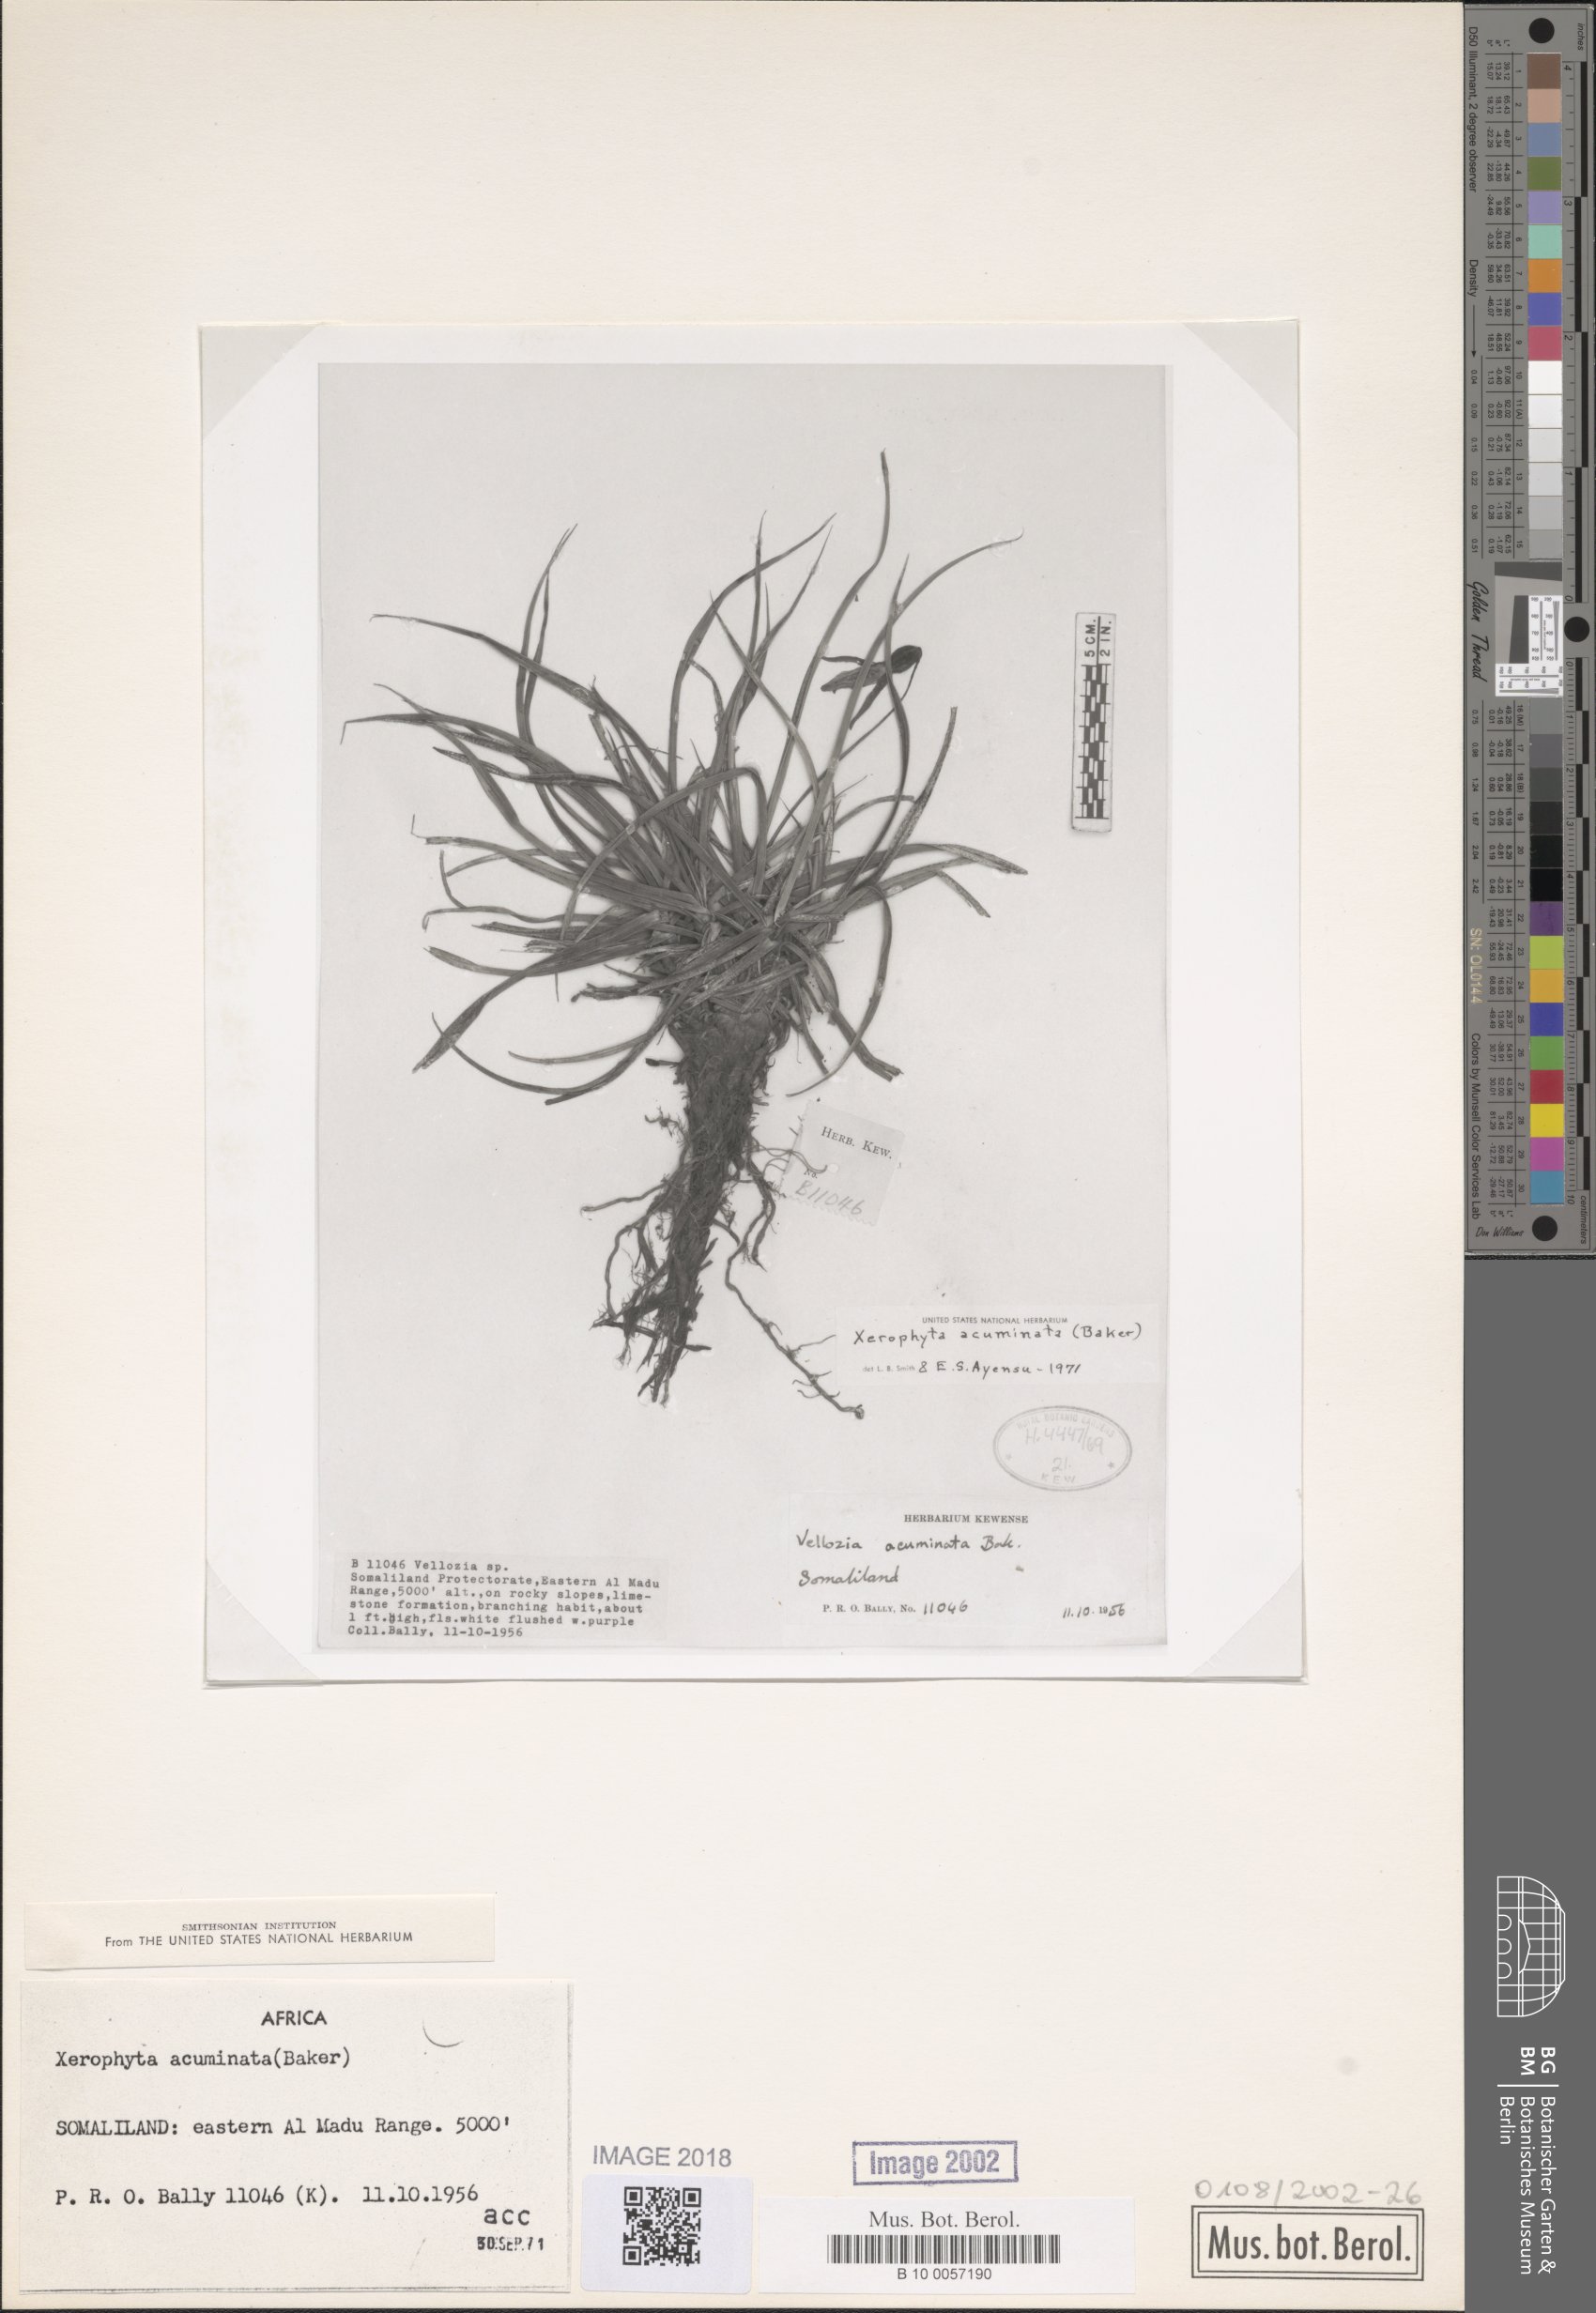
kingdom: Plantae
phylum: Tracheophyta
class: Liliopsida
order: Pandanales
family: Velloziaceae
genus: Xerophyta
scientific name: Xerophyta acuminata
